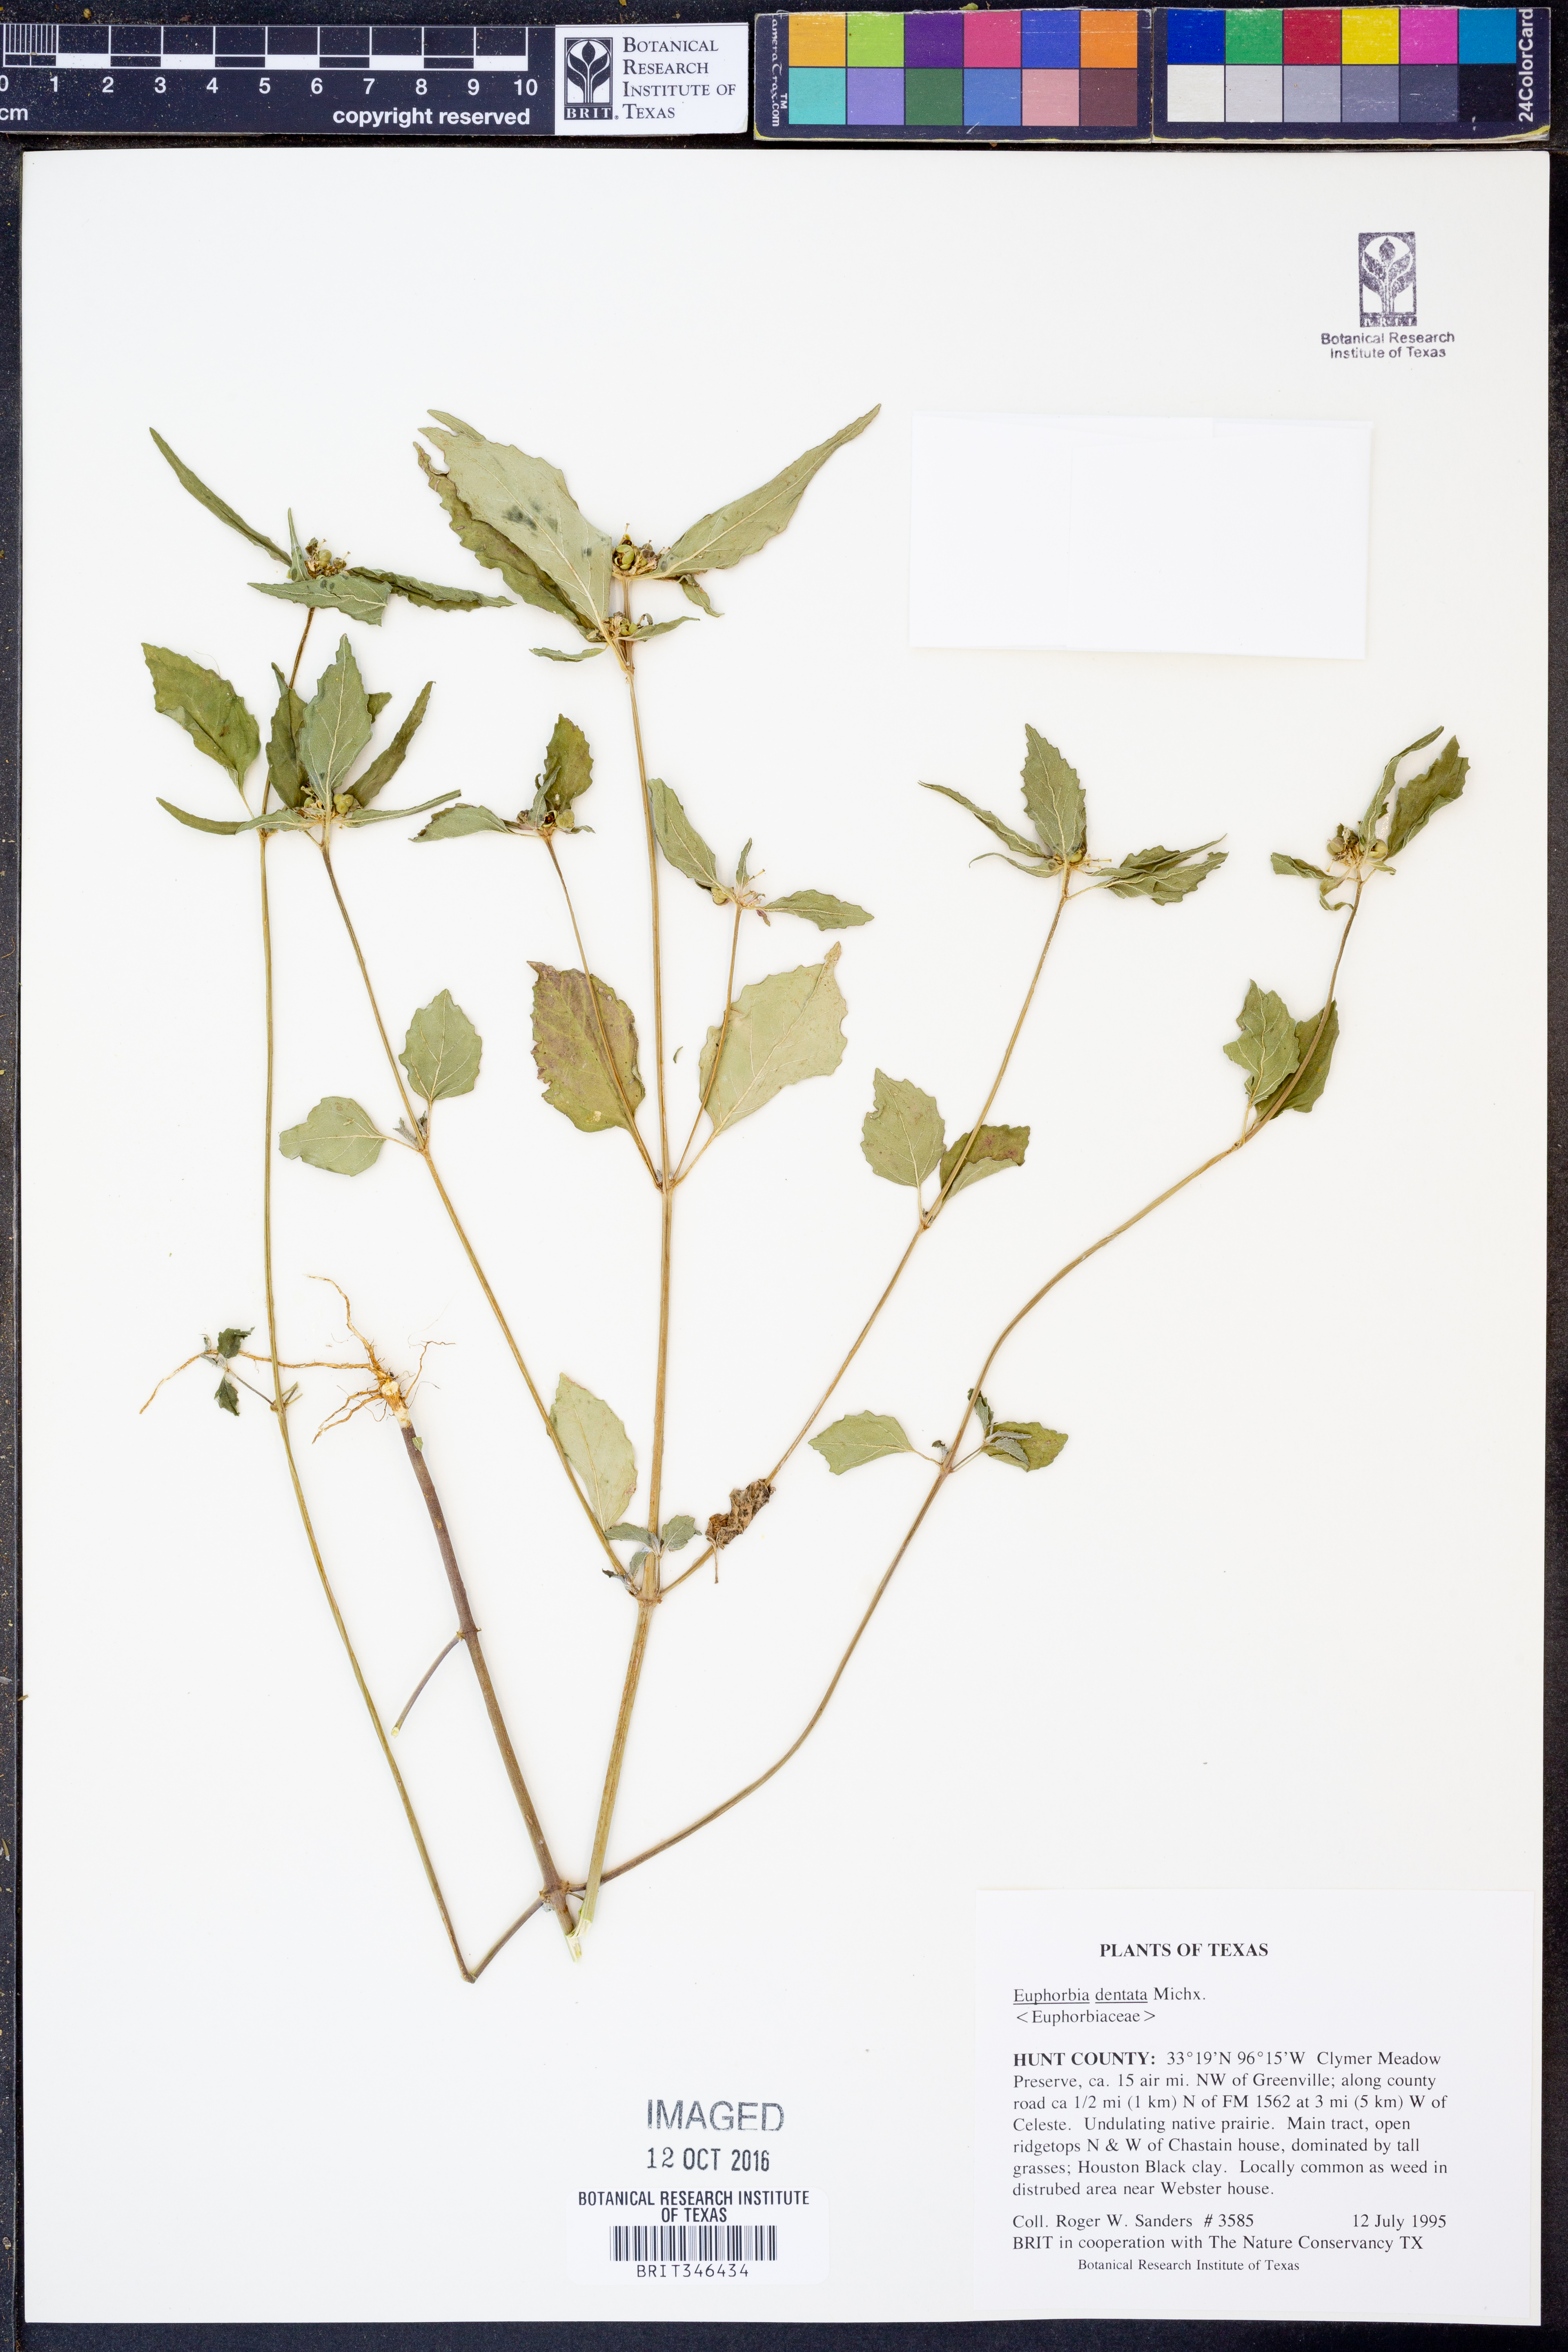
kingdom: Plantae
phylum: Tracheophyta
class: Magnoliopsida
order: Malpighiales
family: Euphorbiaceae
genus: Euphorbia
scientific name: Euphorbia dentata
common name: Dentate spurge
